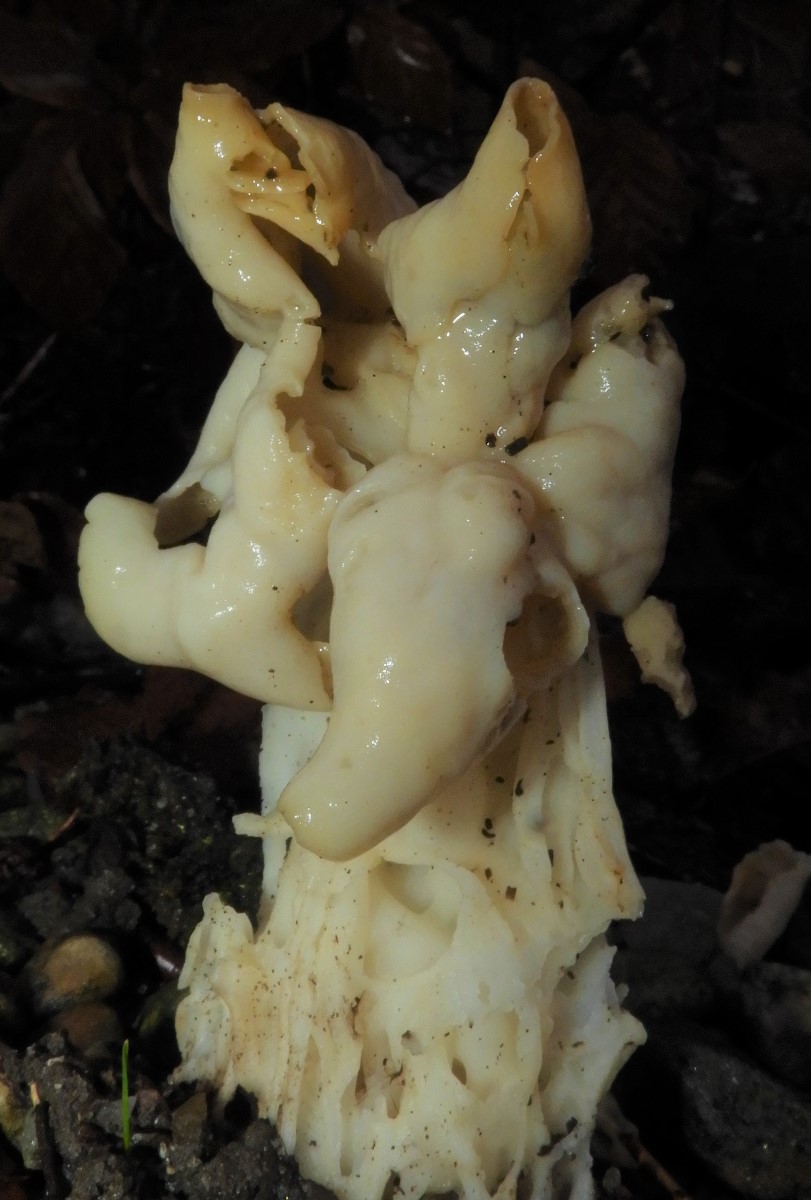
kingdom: Fungi
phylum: Ascomycota
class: Pezizomycetes
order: Pezizales
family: Helvellaceae
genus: Helvella
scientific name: Helvella crispa
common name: kruset foldhat
